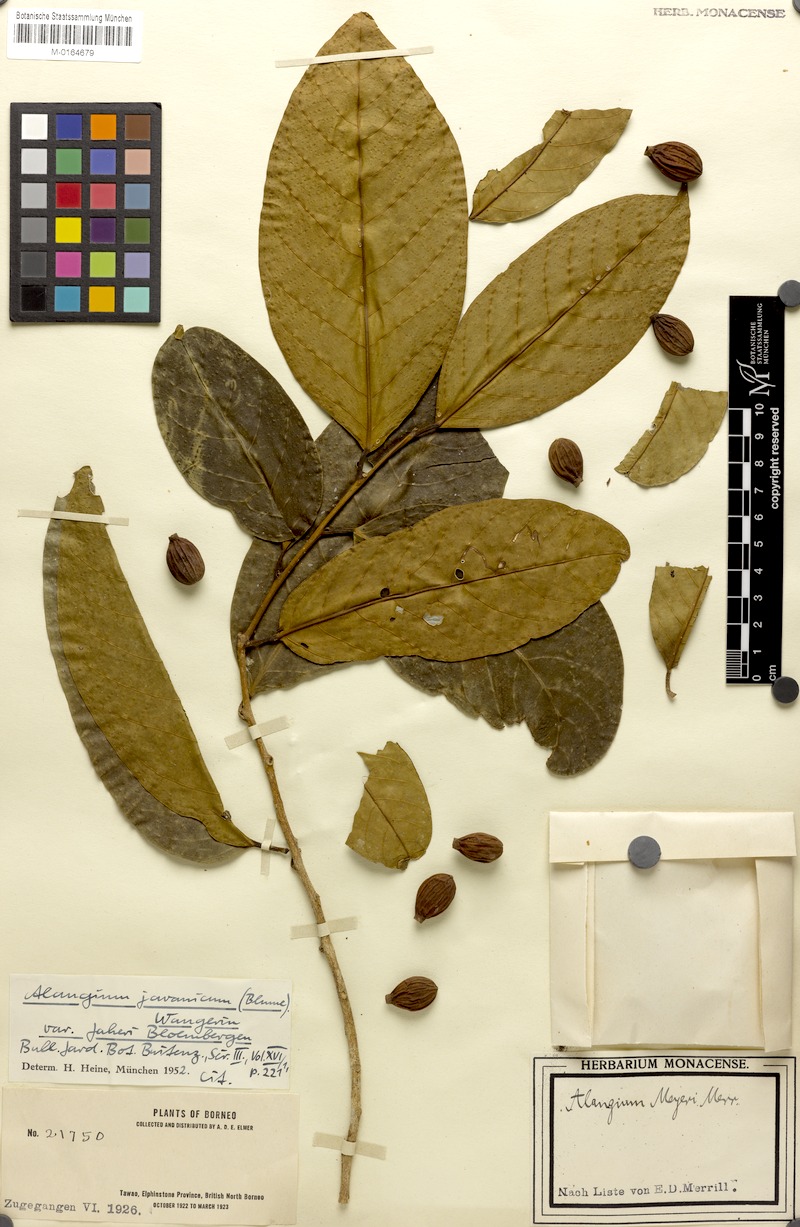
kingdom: Plantae
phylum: Tracheophyta
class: Magnoliopsida
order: Cornales
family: Cornaceae
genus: Alangium
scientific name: Alangium minahassicum
